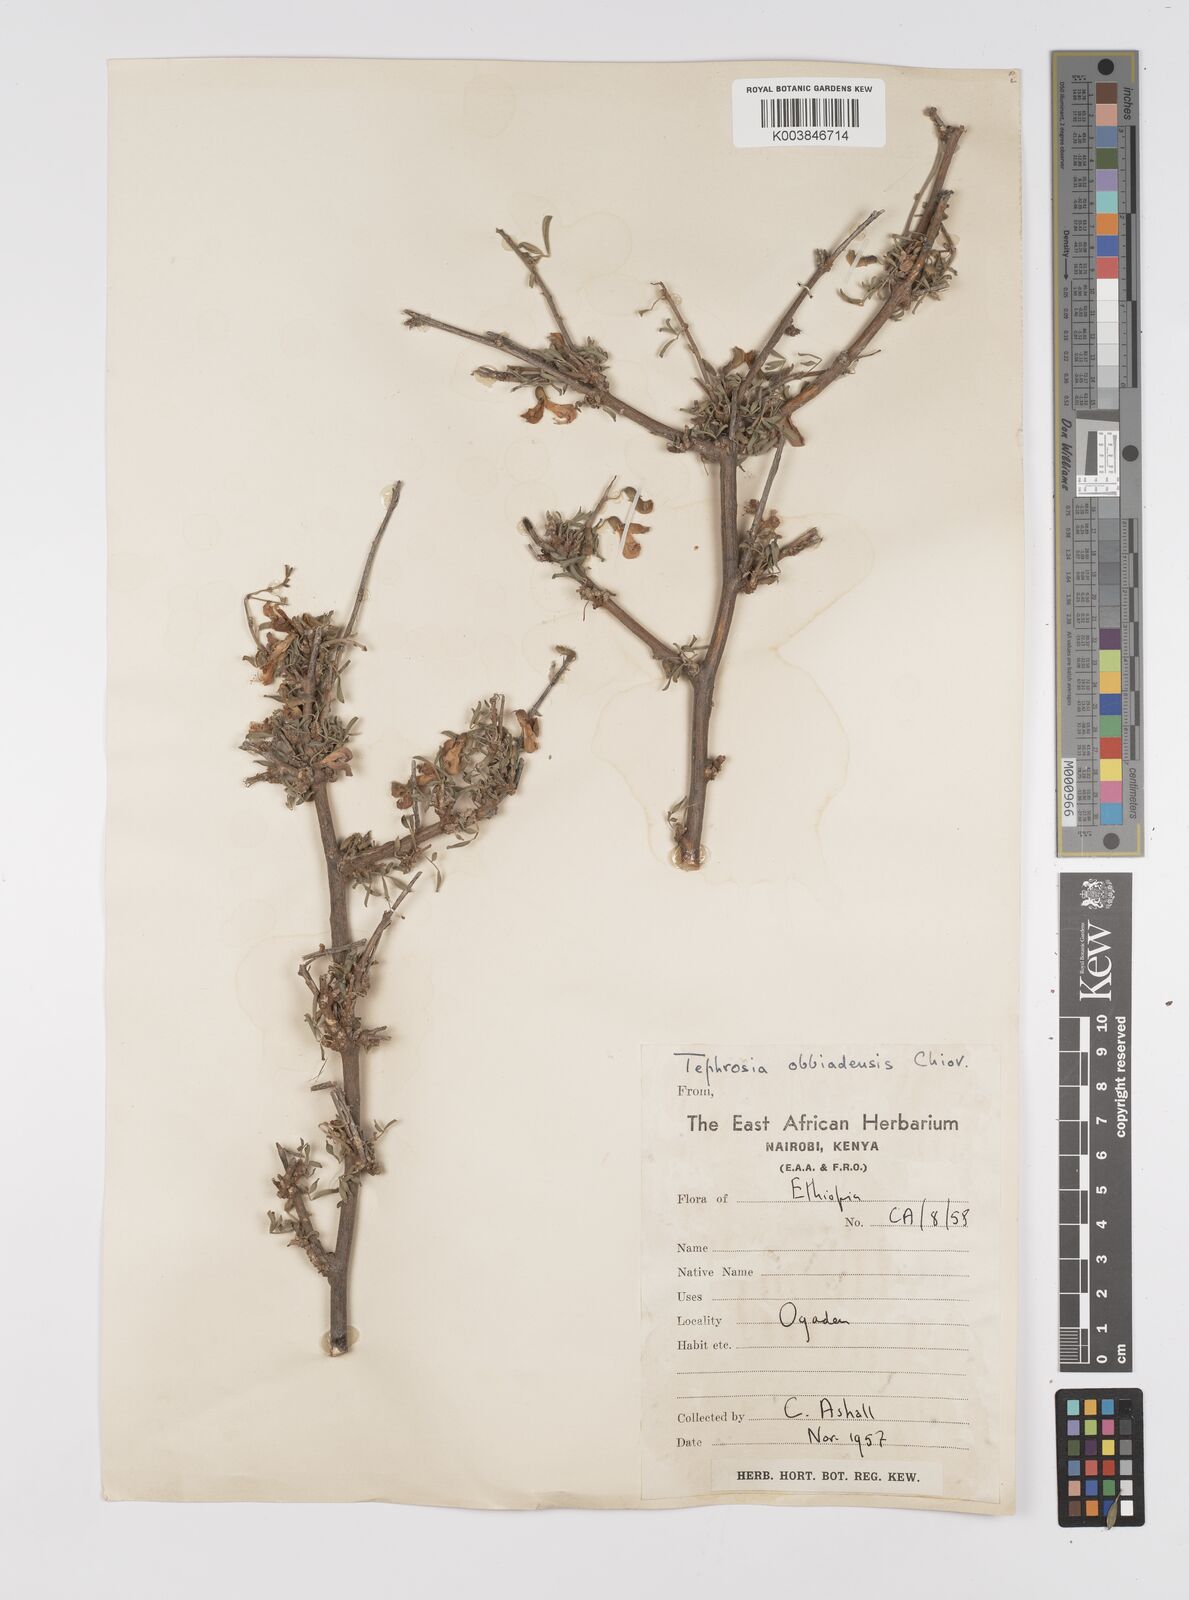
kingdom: Plantae
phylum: Tracheophyta
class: Magnoliopsida
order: Fabales
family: Fabaceae
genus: Tephrosia
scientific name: Tephrosia obbiadensis
